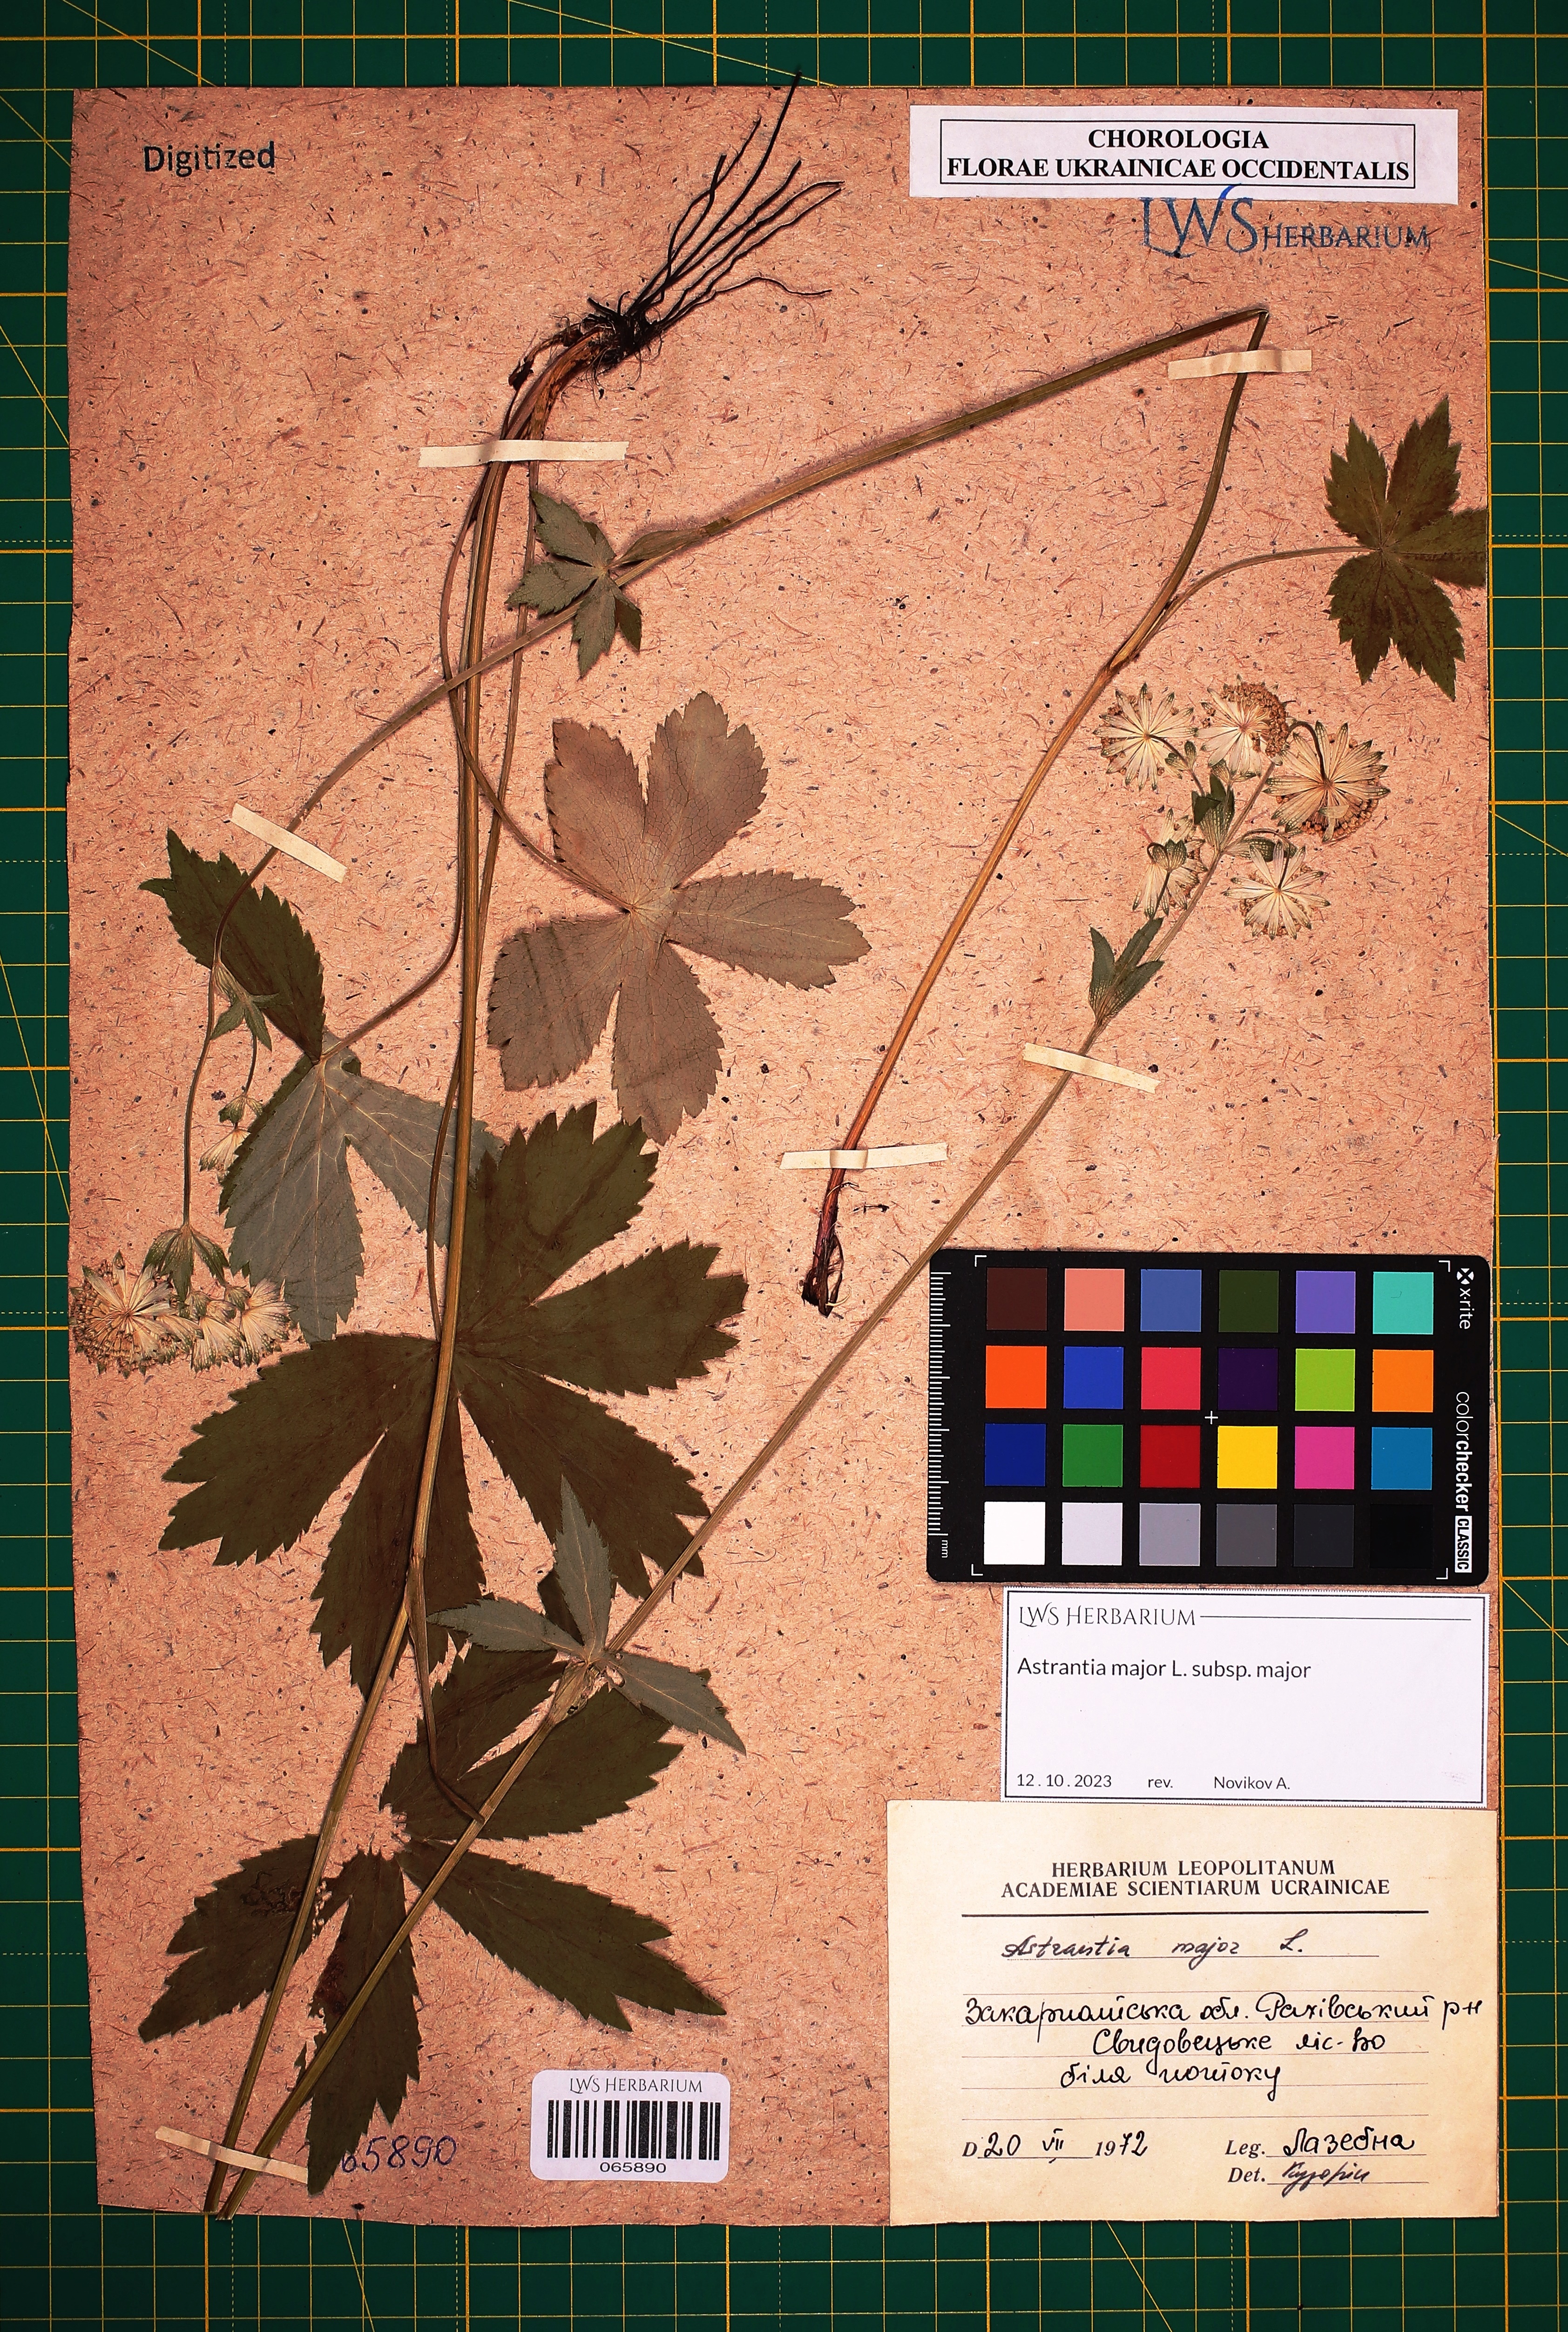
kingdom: Plantae
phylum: Tracheophyta
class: Magnoliopsida
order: Apiales
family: Apiaceae
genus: Astrantia
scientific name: Astrantia major
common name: Greater masterwort
